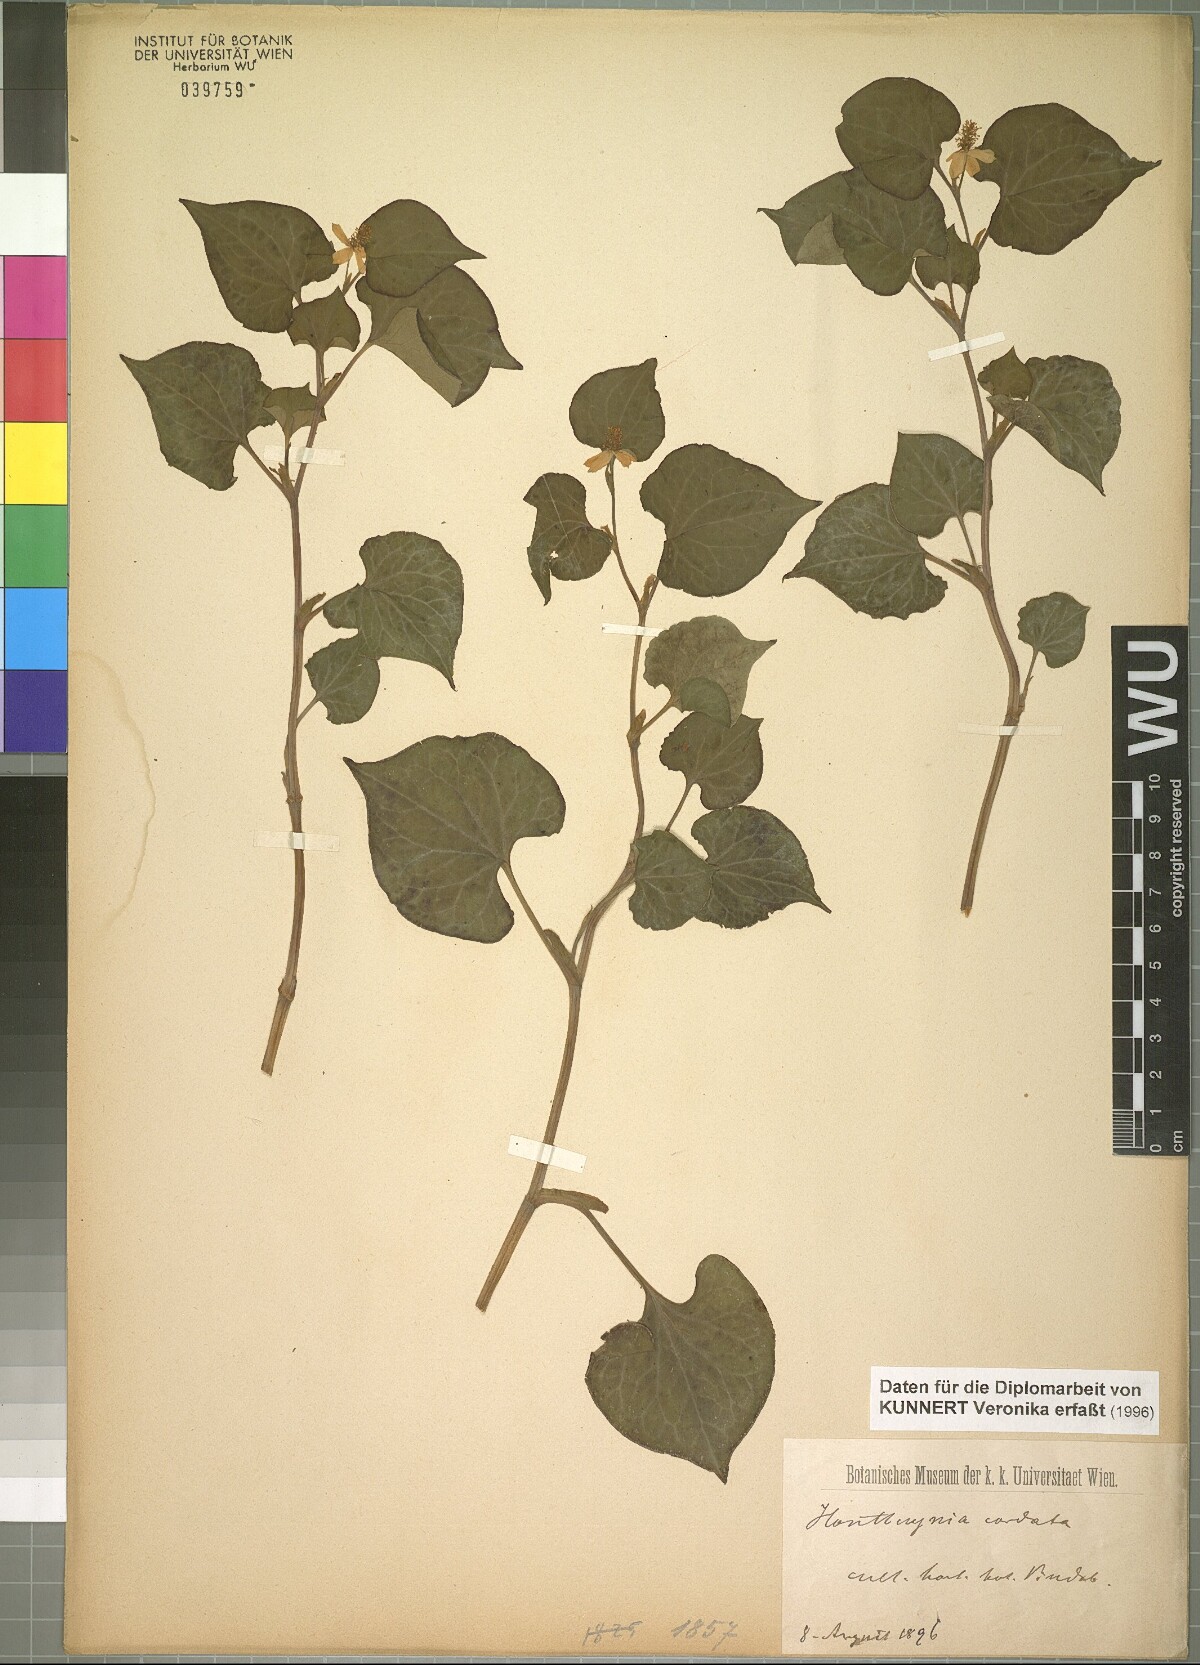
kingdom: Plantae
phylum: Tracheophyta
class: Magnoliopsida
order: Piperales
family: Saururaceae
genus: Houttuynia
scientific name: Houttuynia cordata
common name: Chameleon
